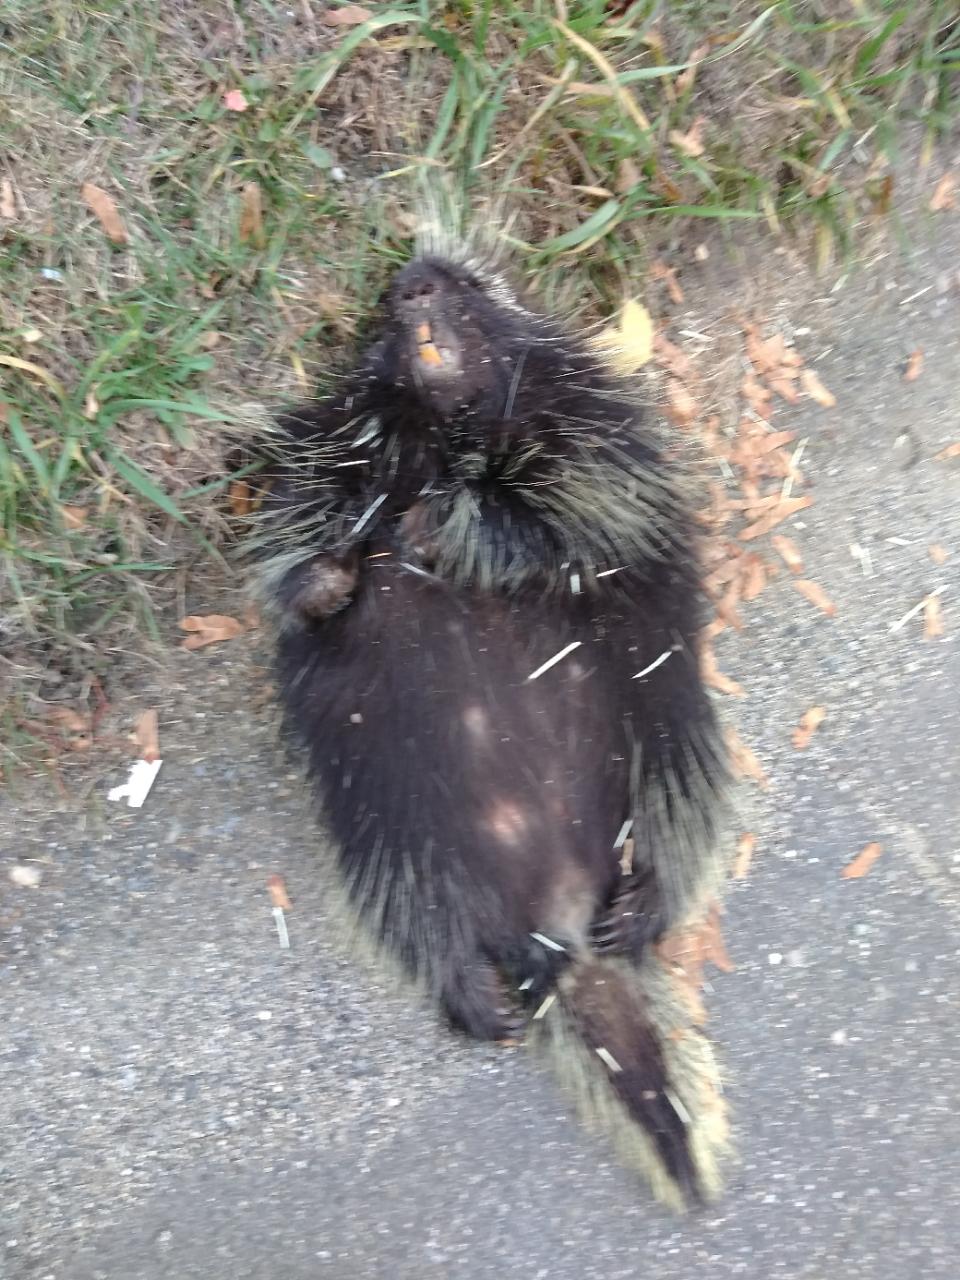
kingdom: Animalia
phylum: Chordata
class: Mammalia
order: Rodentia
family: Erethizontidae
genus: Erethizon
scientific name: Erethizon dorsatus
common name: North american porcupine
